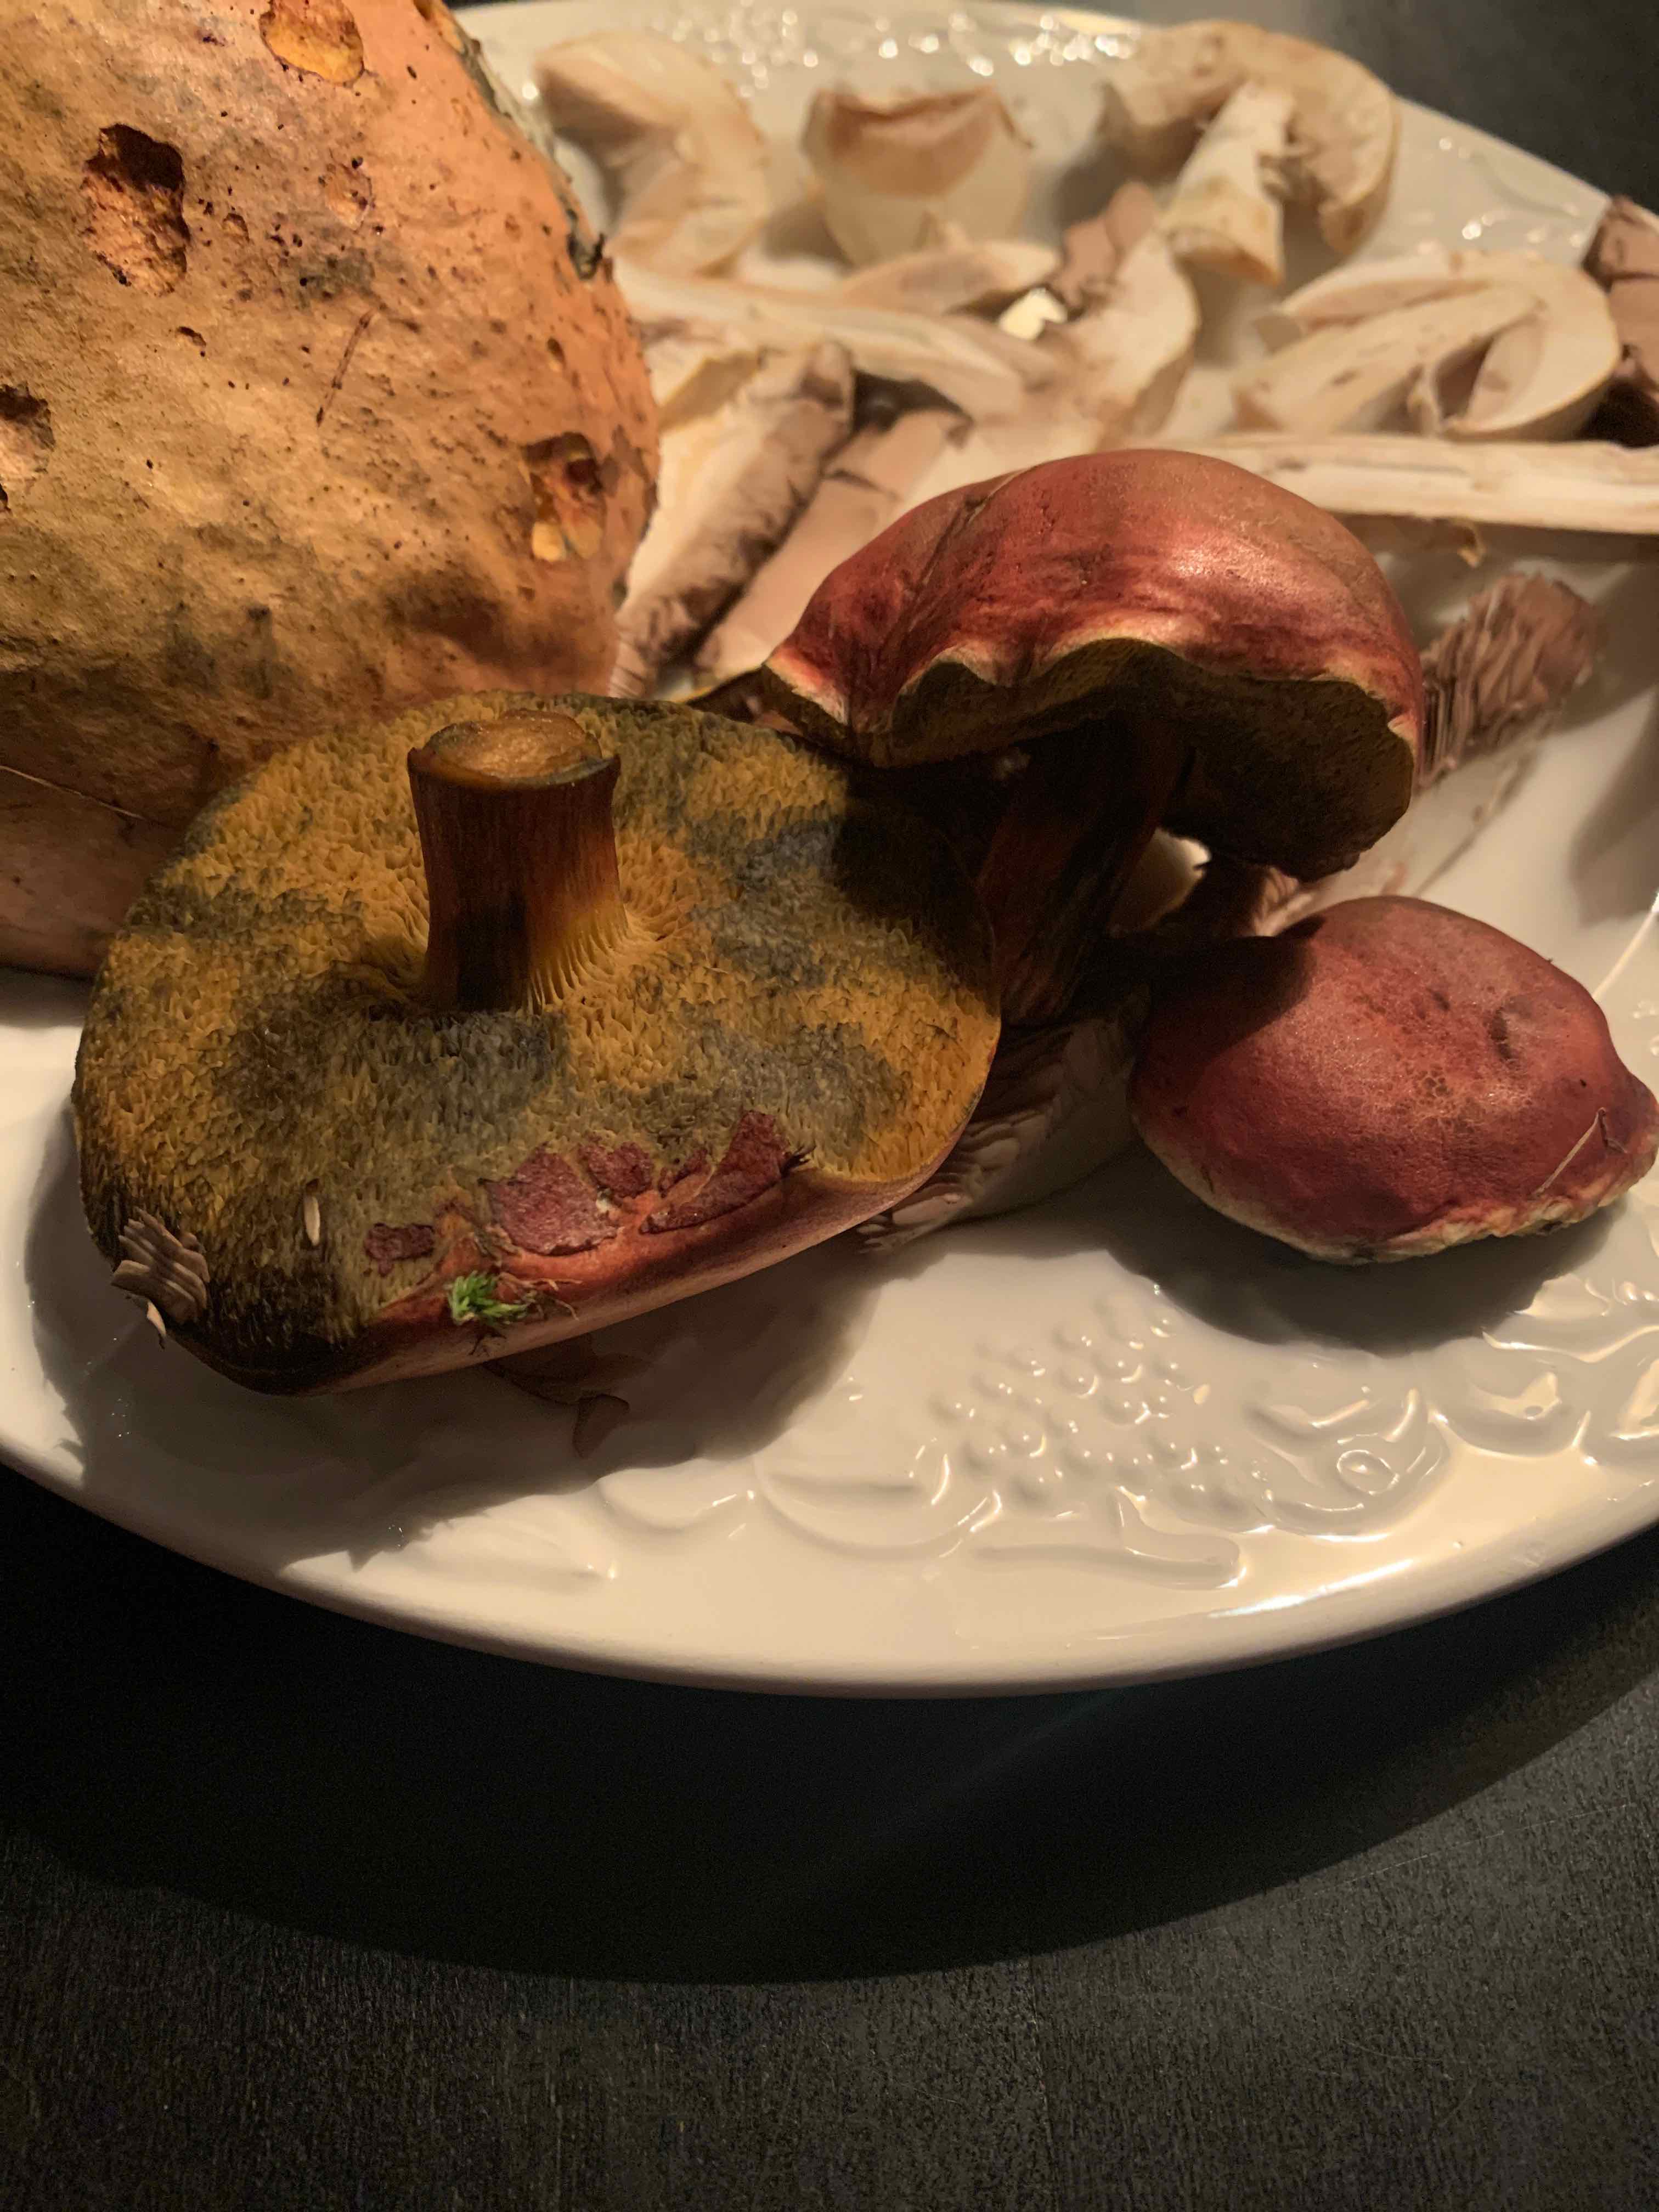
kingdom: Fungi
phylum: Basidiomycota
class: Agaricomycetes
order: Boletales
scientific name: Boletales
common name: rørhatordenen
